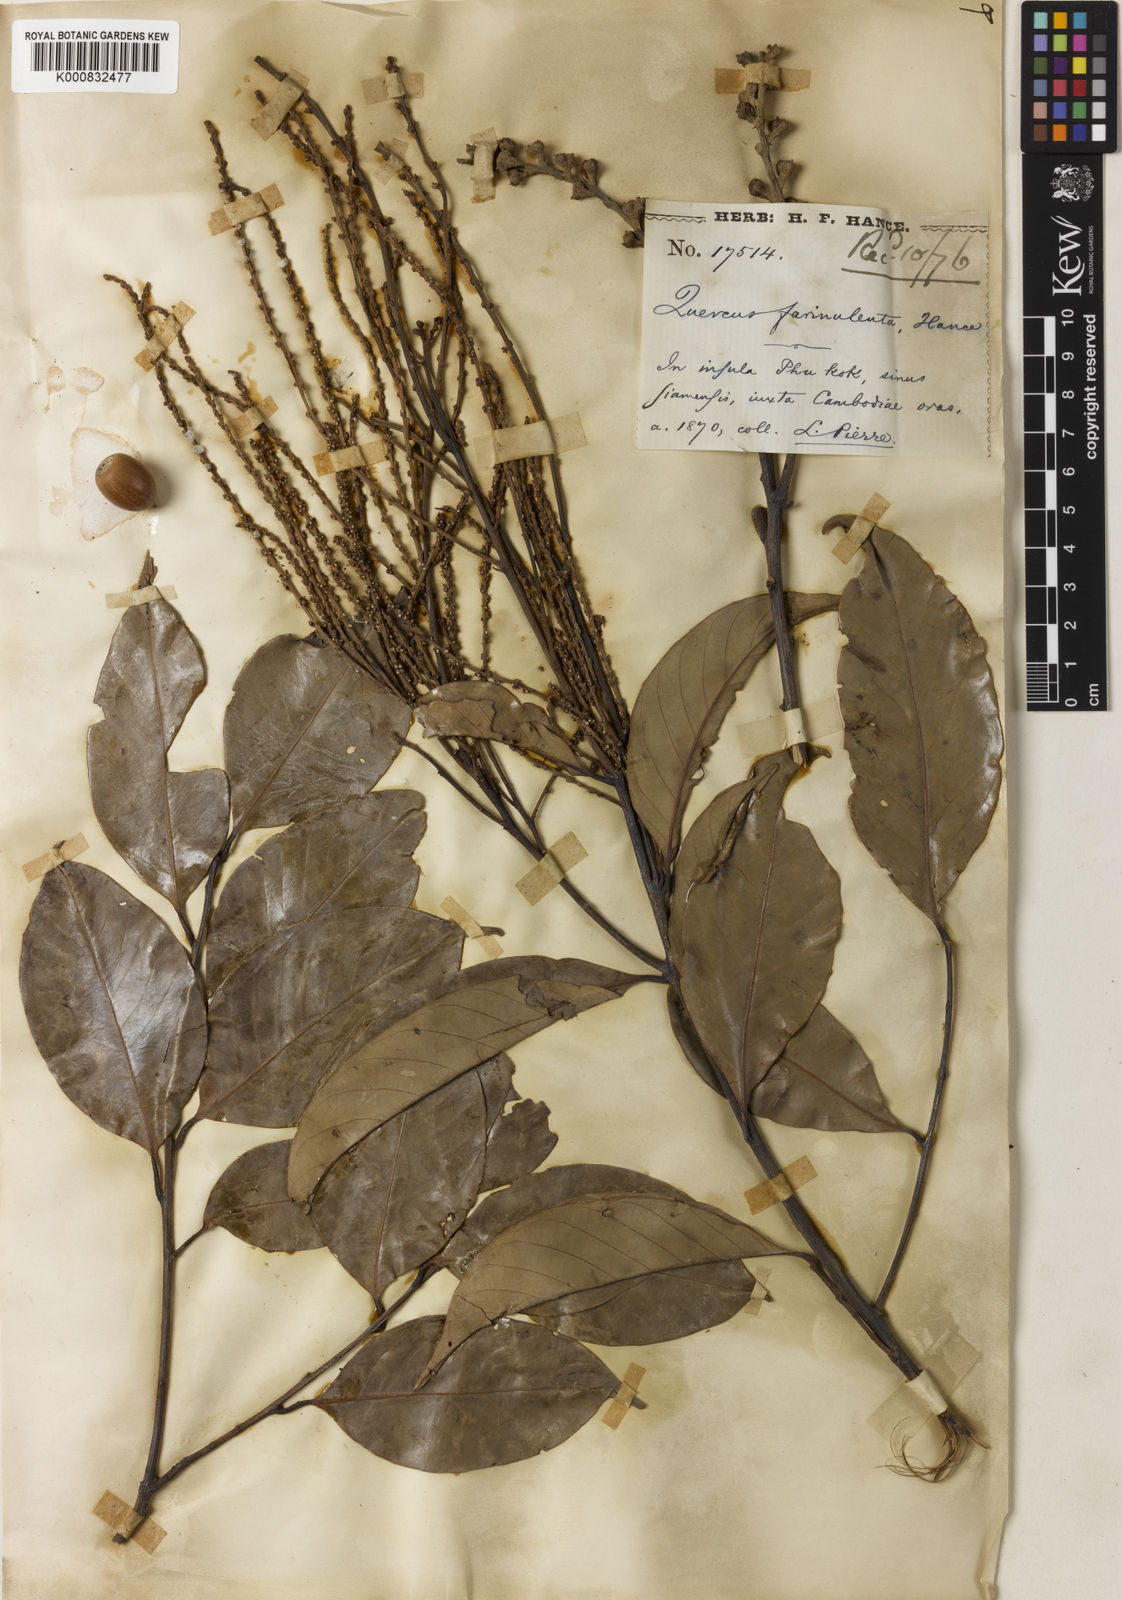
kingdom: Plantae
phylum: Tracheophyta
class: Magnoliopsida
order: Fagales
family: Fagaceae
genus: Lithocarpus
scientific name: Lithocarpus farinulentus
